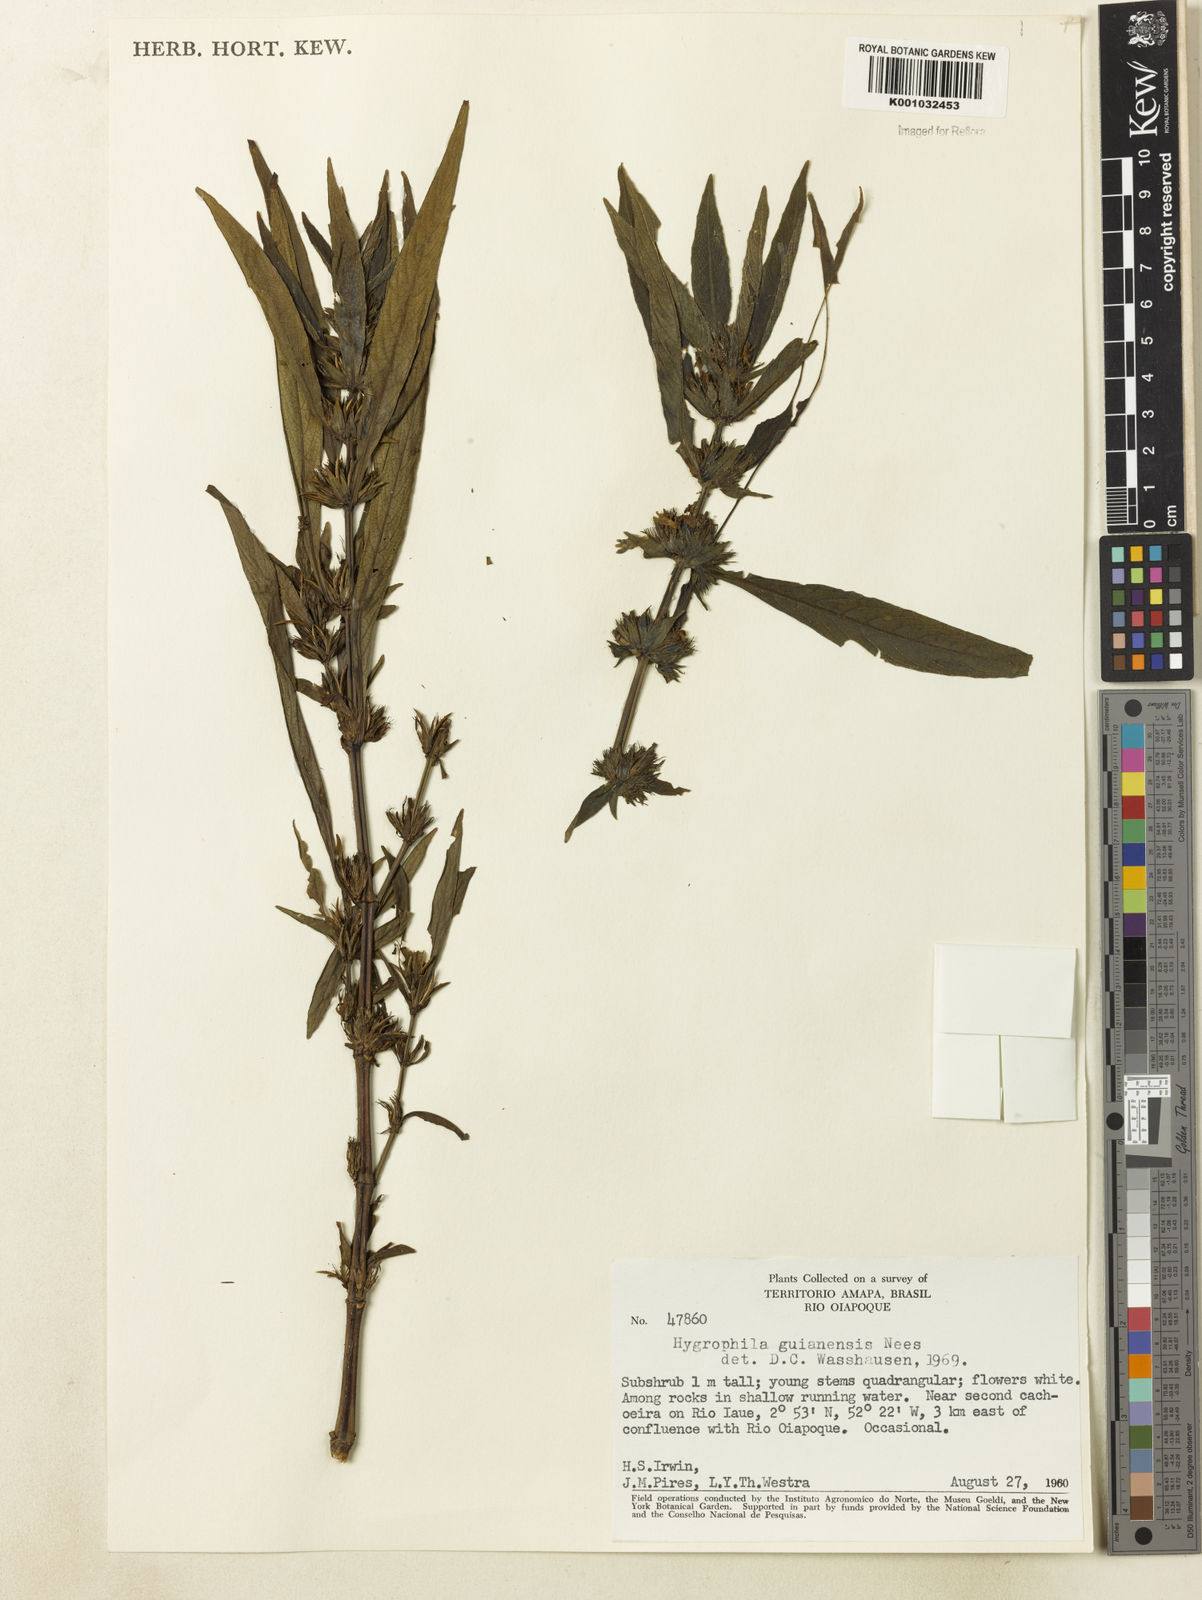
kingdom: Plantae
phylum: Tracheophyta
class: Magnoliopsida
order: Lamiales
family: Acanthaceae
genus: Hygrophila
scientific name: Hygrophila costata
